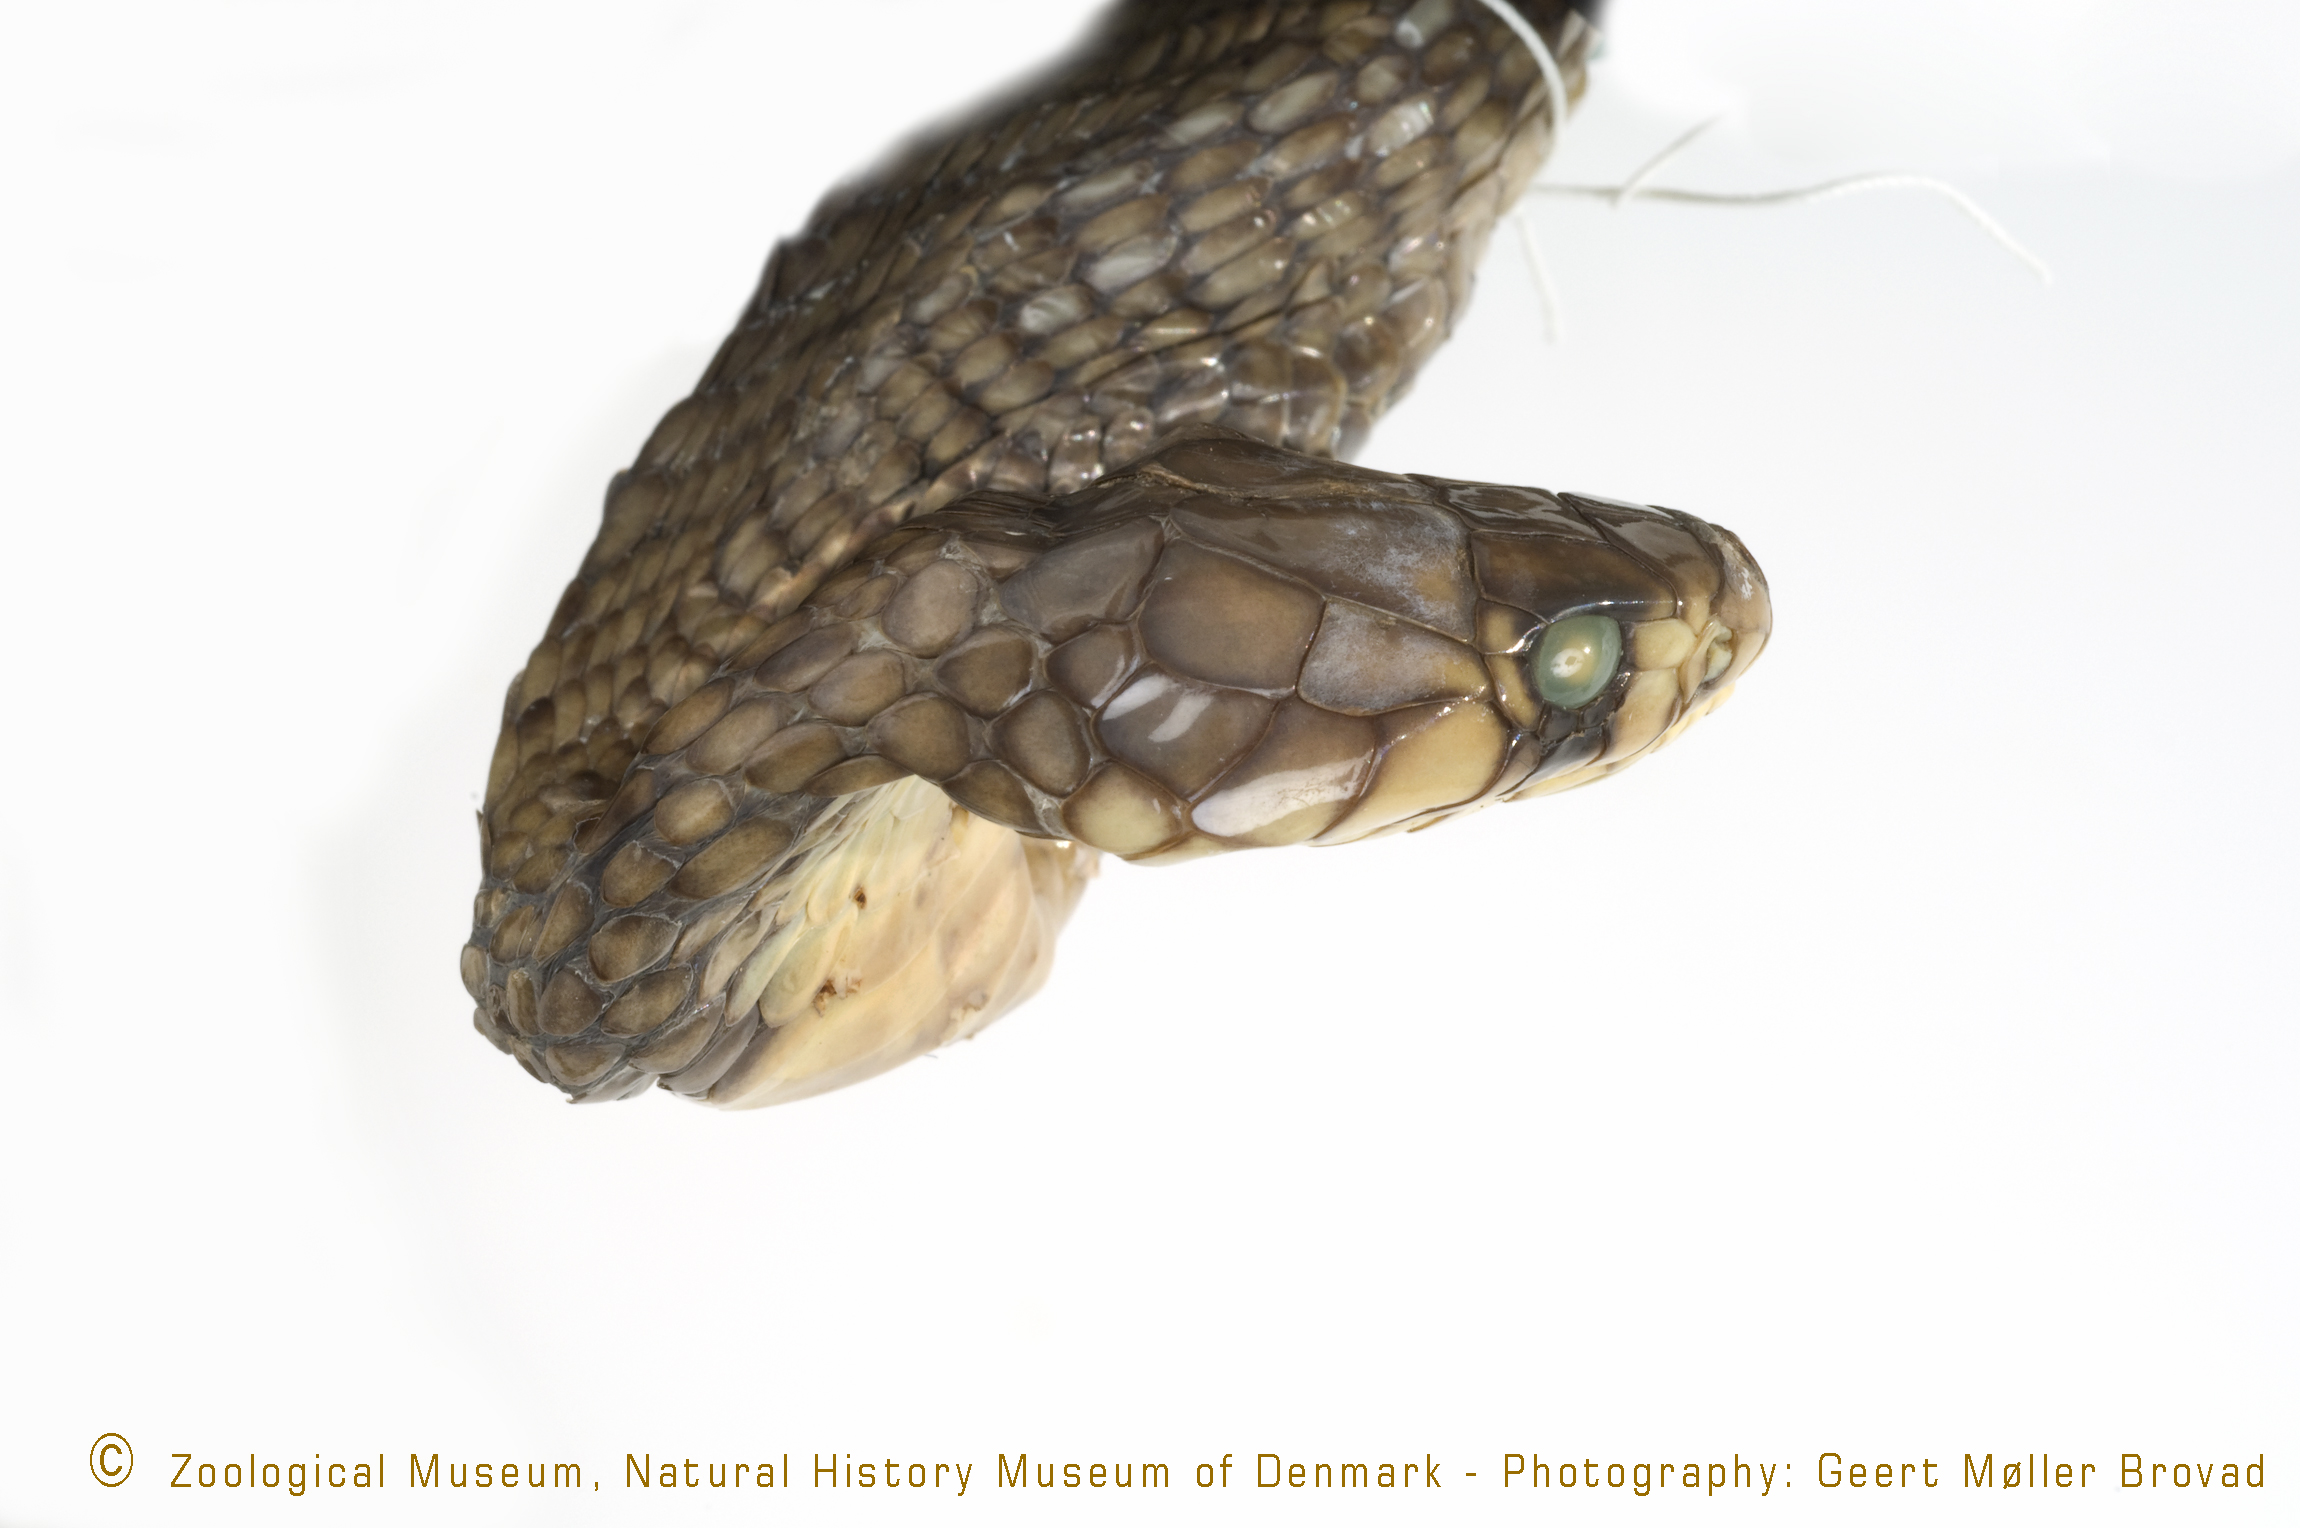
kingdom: Animalia
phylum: Chordata
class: Squamata
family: Elapidae
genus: Naja
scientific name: Naja haje
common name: Egyptian cobra
